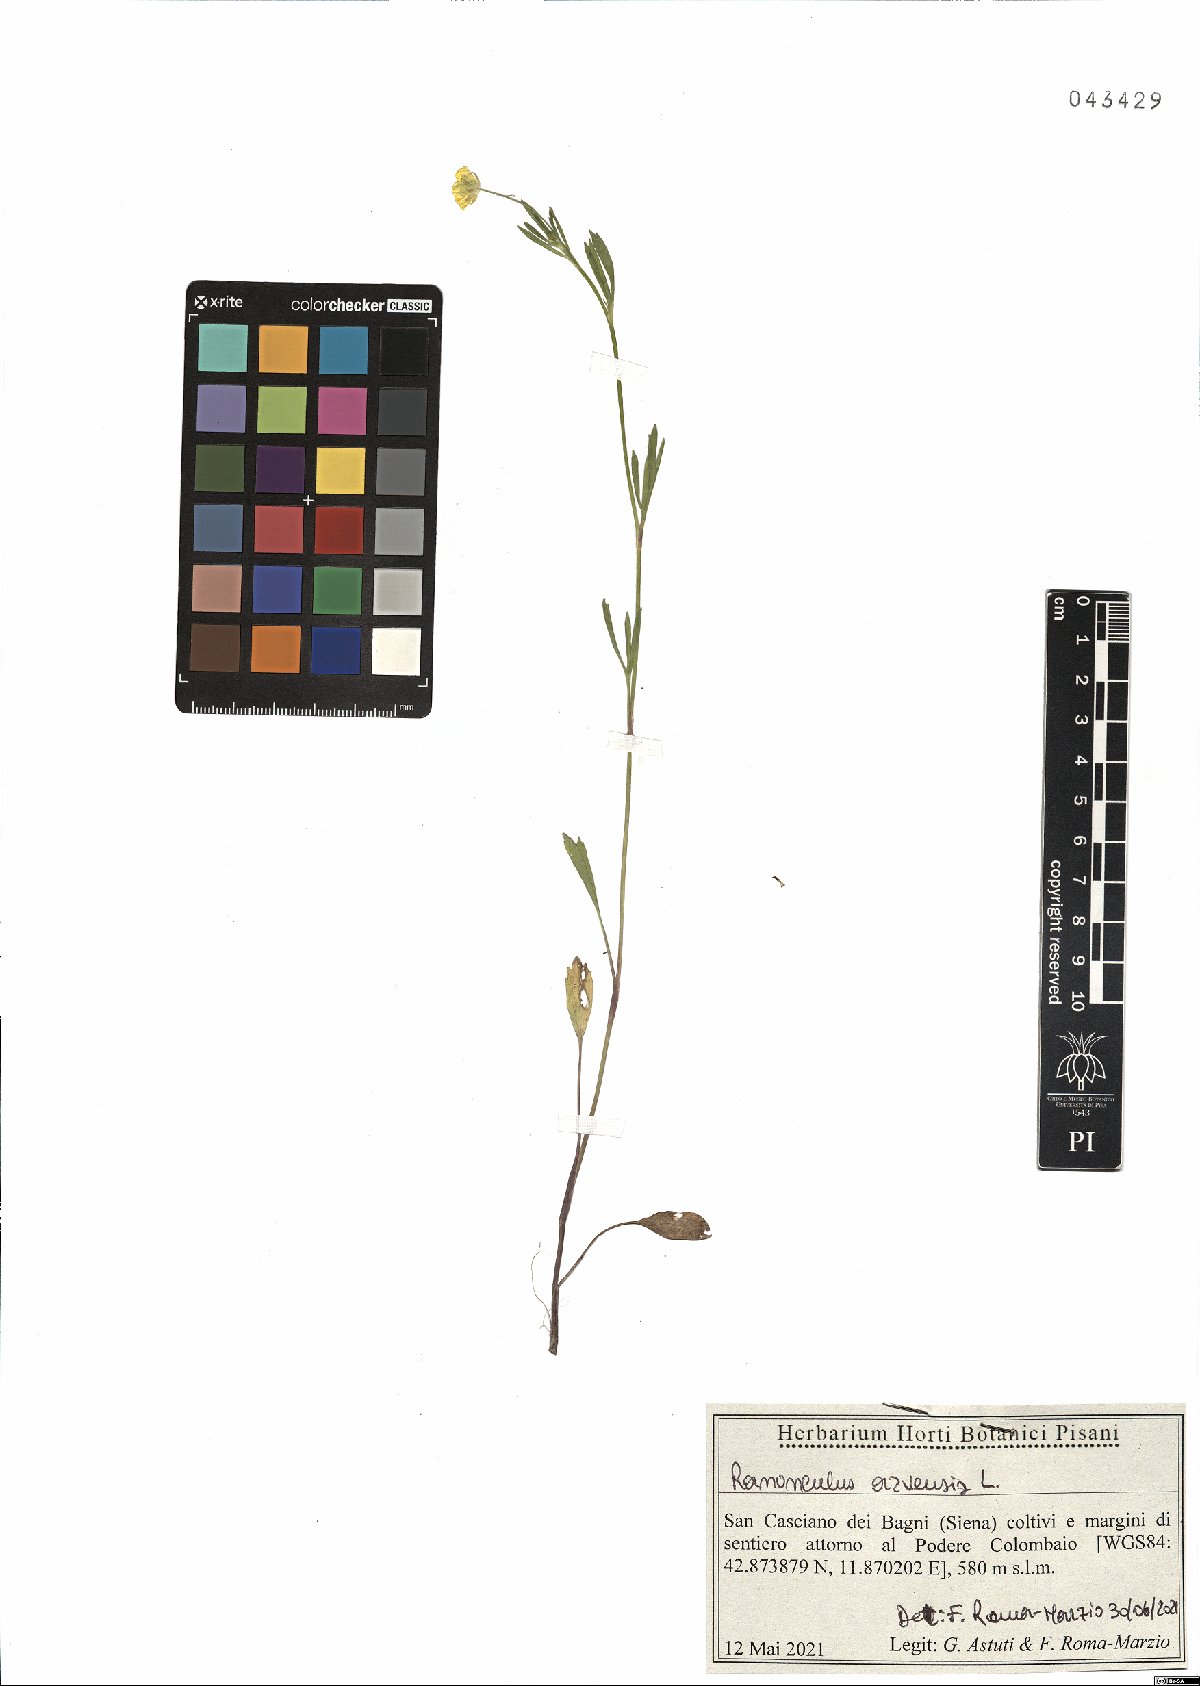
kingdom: Plantae
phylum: Tracheophyta
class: Magnoliopsida
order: Ranunculales
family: Ranunculaceae
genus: Ranunculus
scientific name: Ranunculus arvensis
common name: Corn buttercup
